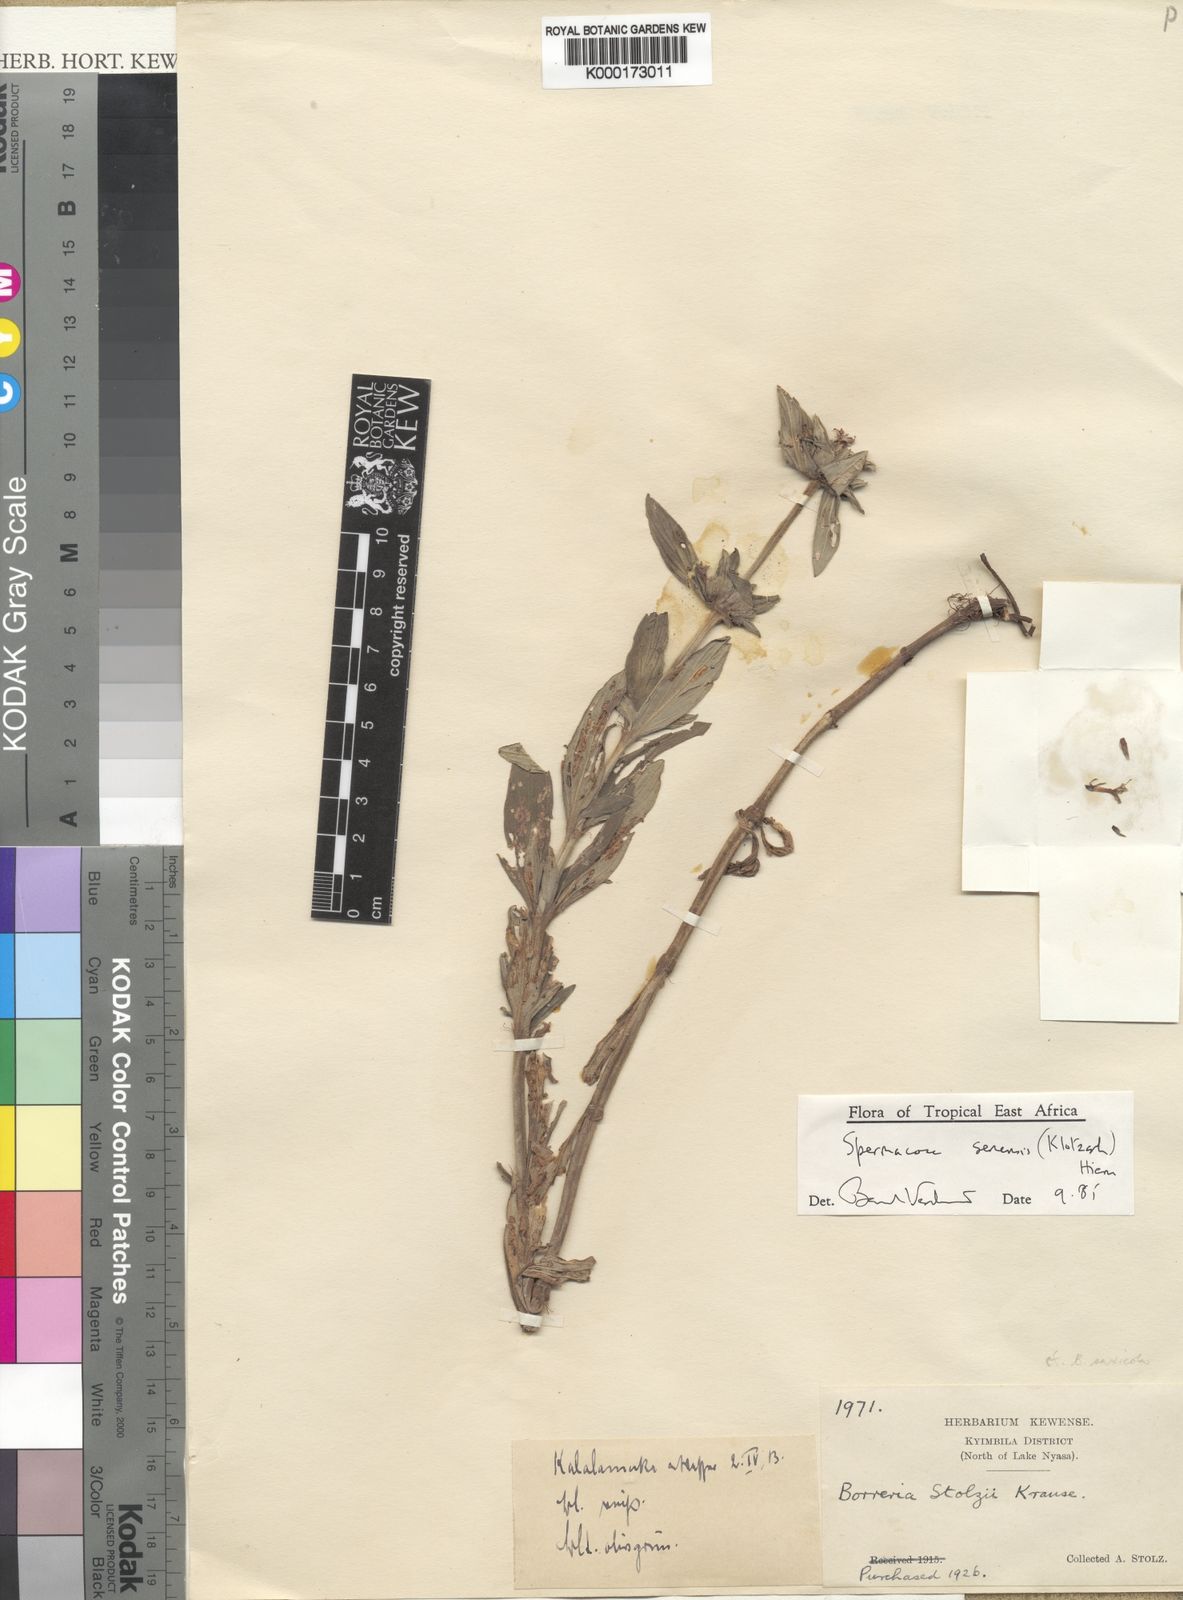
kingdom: Plantae
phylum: Tracheophyta
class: Magnoliopsida
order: Gentianales
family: Rubiaceae
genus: Spermacoce
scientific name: Spermacoce senensis
